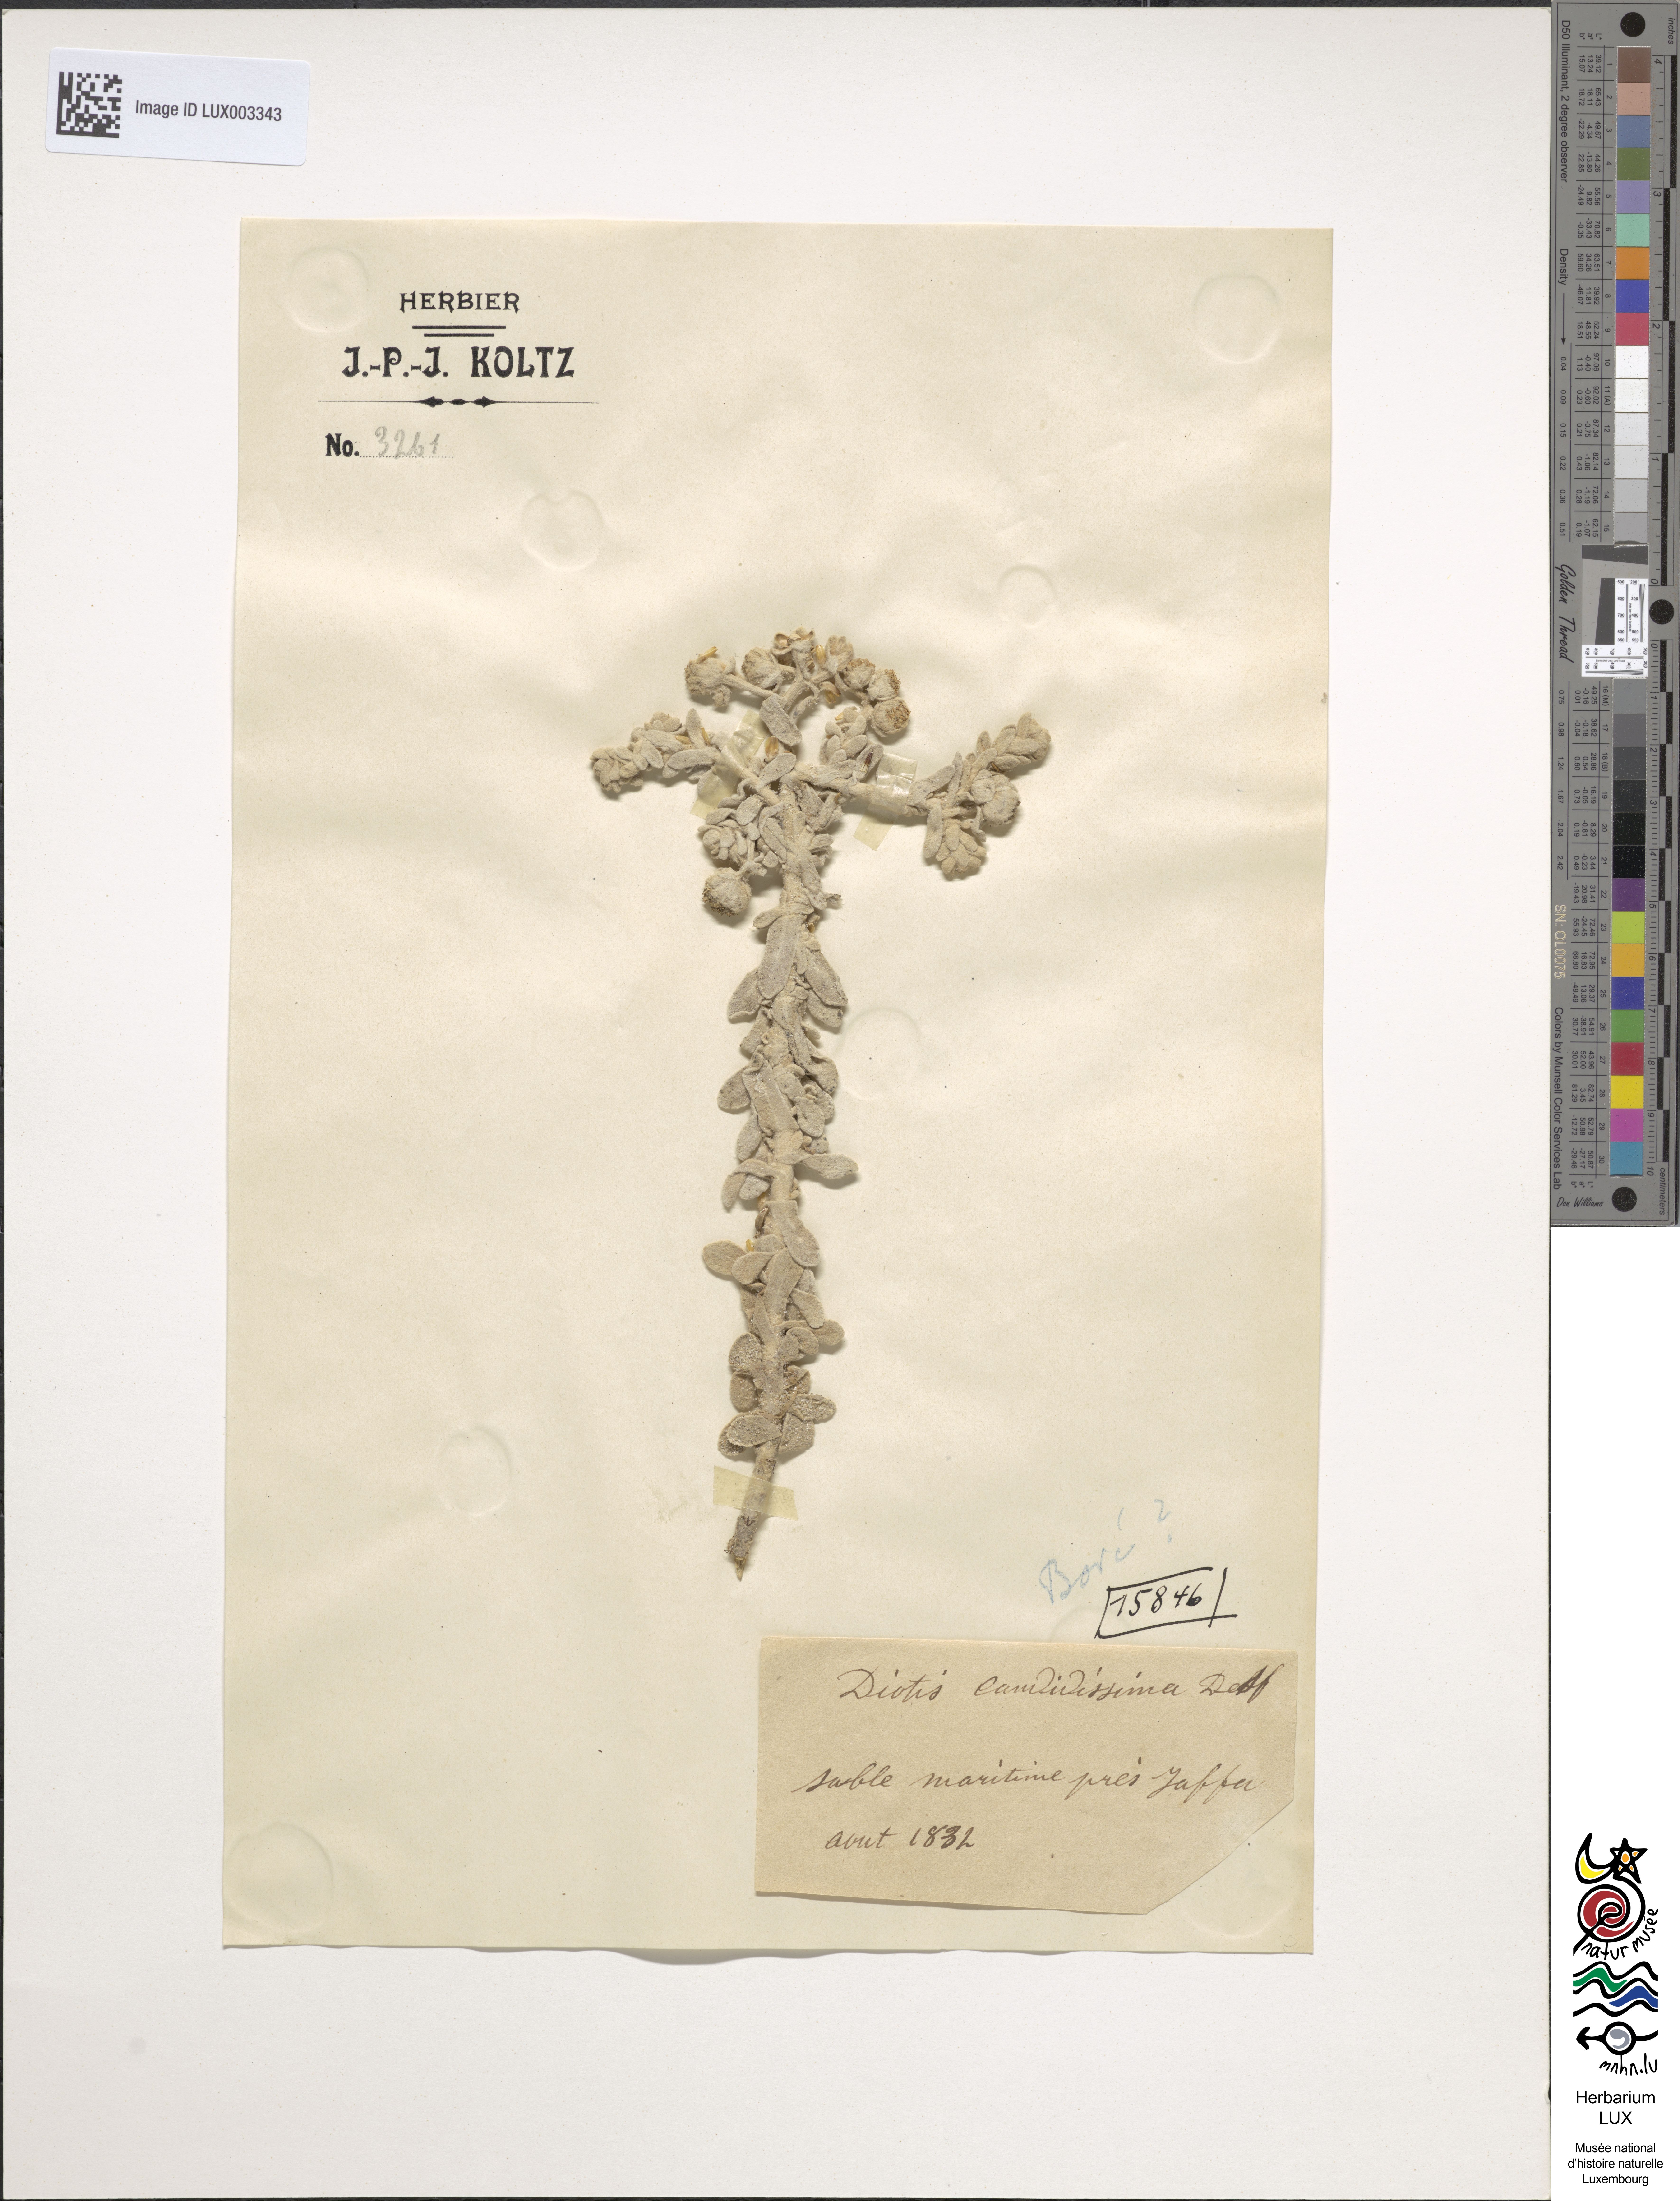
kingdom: Plantae
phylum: Tracheophyta
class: Magnoliopsida
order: Asterales
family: Asteraceae
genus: Achillea
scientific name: Achillea maritima
